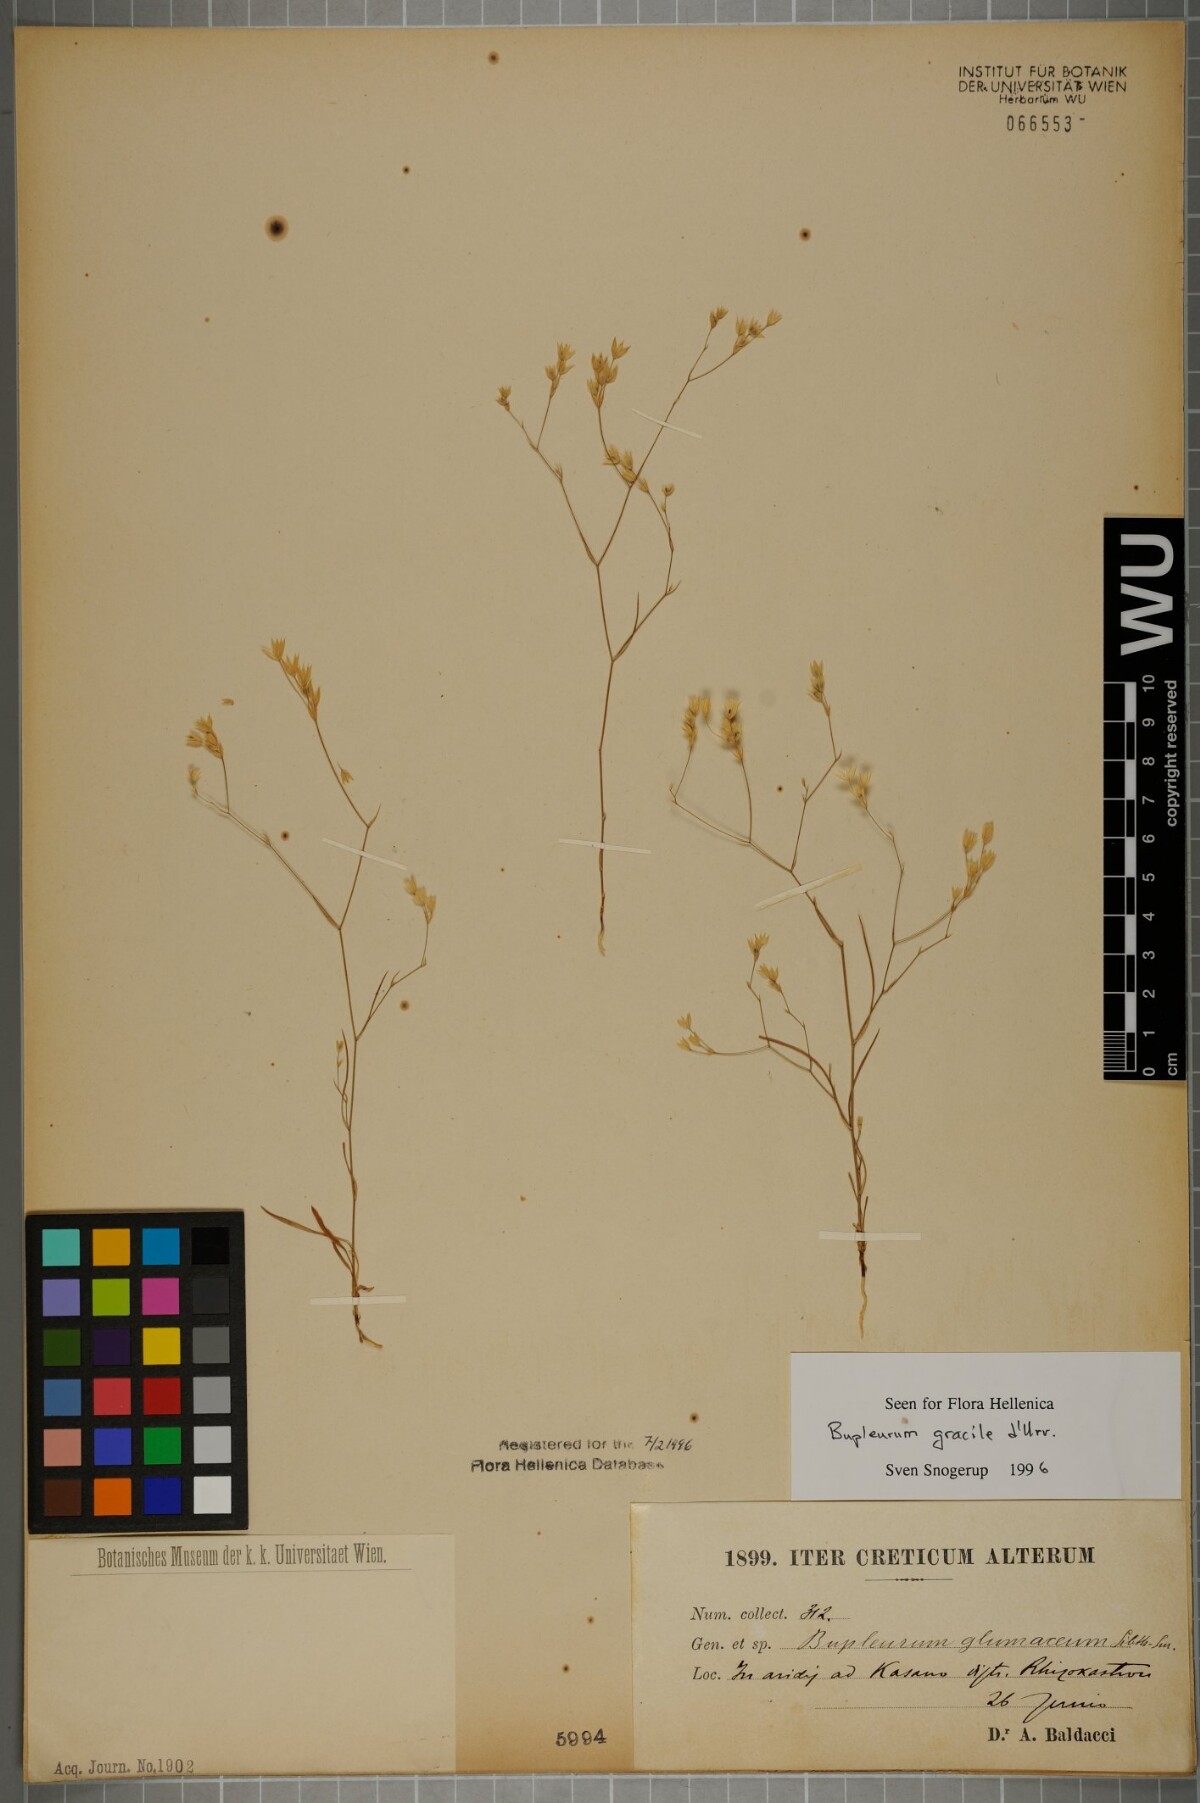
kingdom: Plantae
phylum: Tracheophyta
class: Magnoliopsida
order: Apiales
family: Apiaceae
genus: Bupleurum
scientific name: Bupleurum gracile
